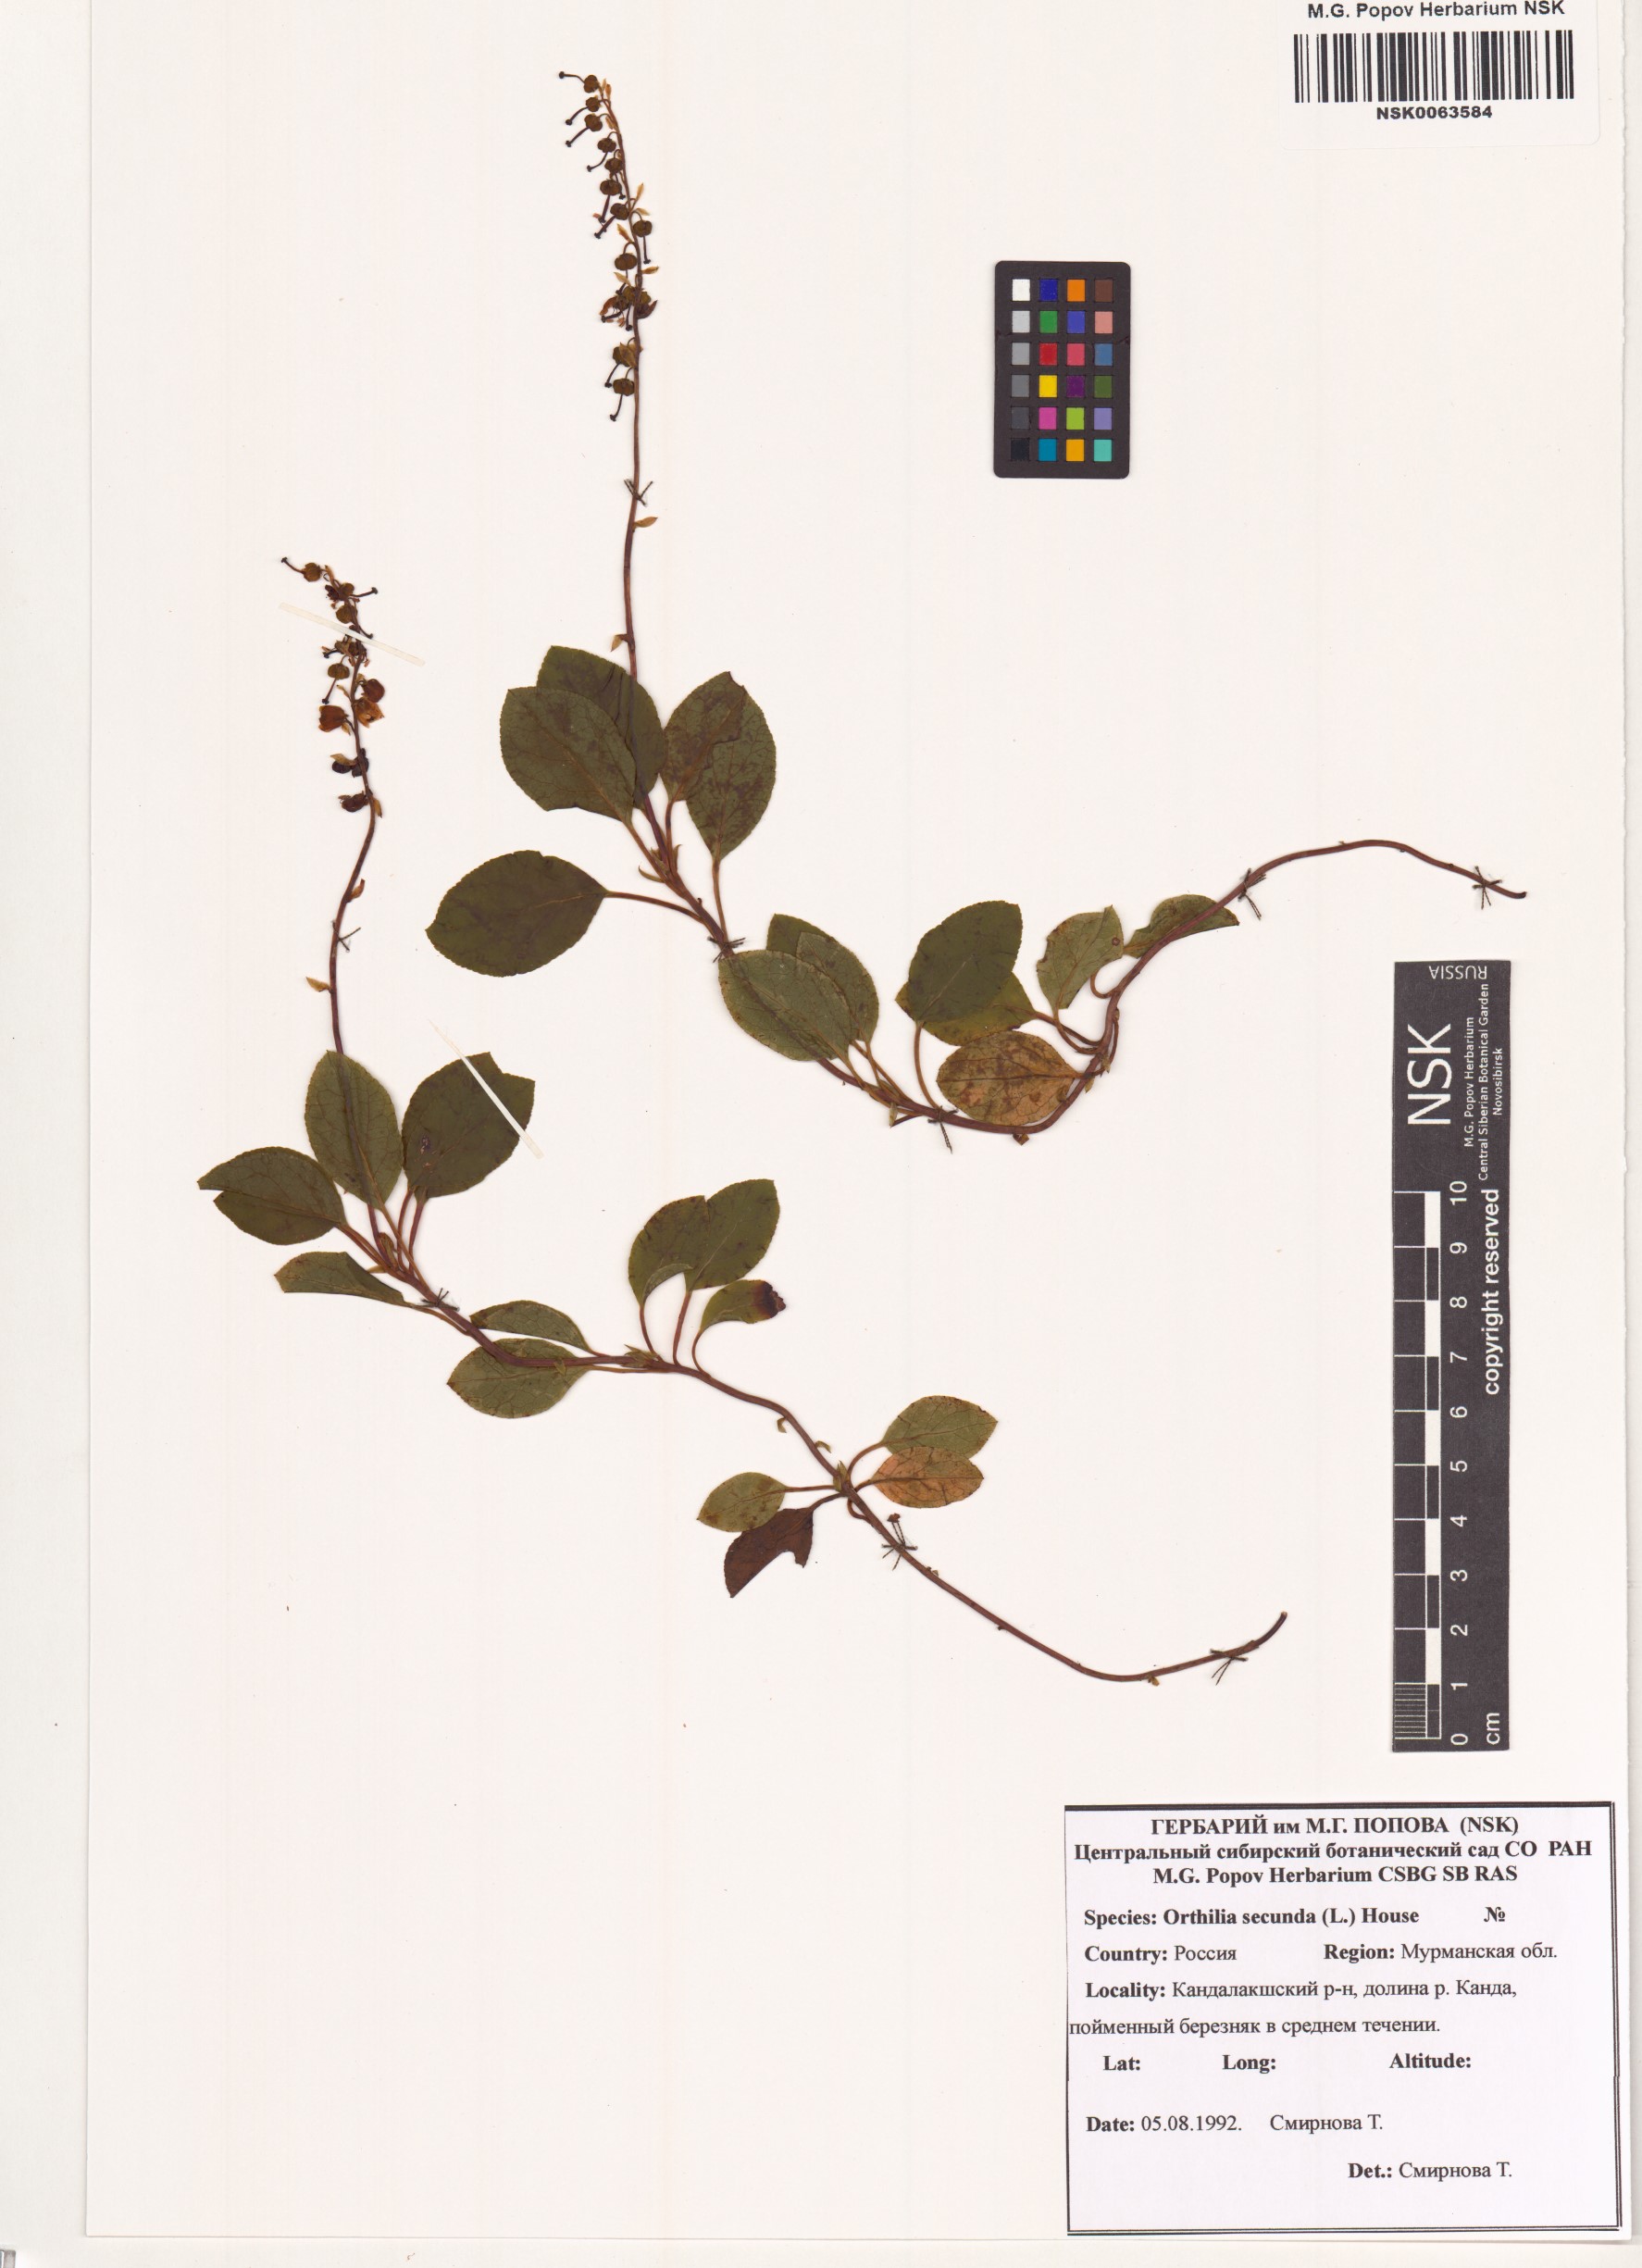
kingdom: Plantae
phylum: Tracheophyta
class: Magnoliopsida
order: Ericales
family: Ericaceae
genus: Orthilia
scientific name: Orthilia secunda
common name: One-sided orthilia
